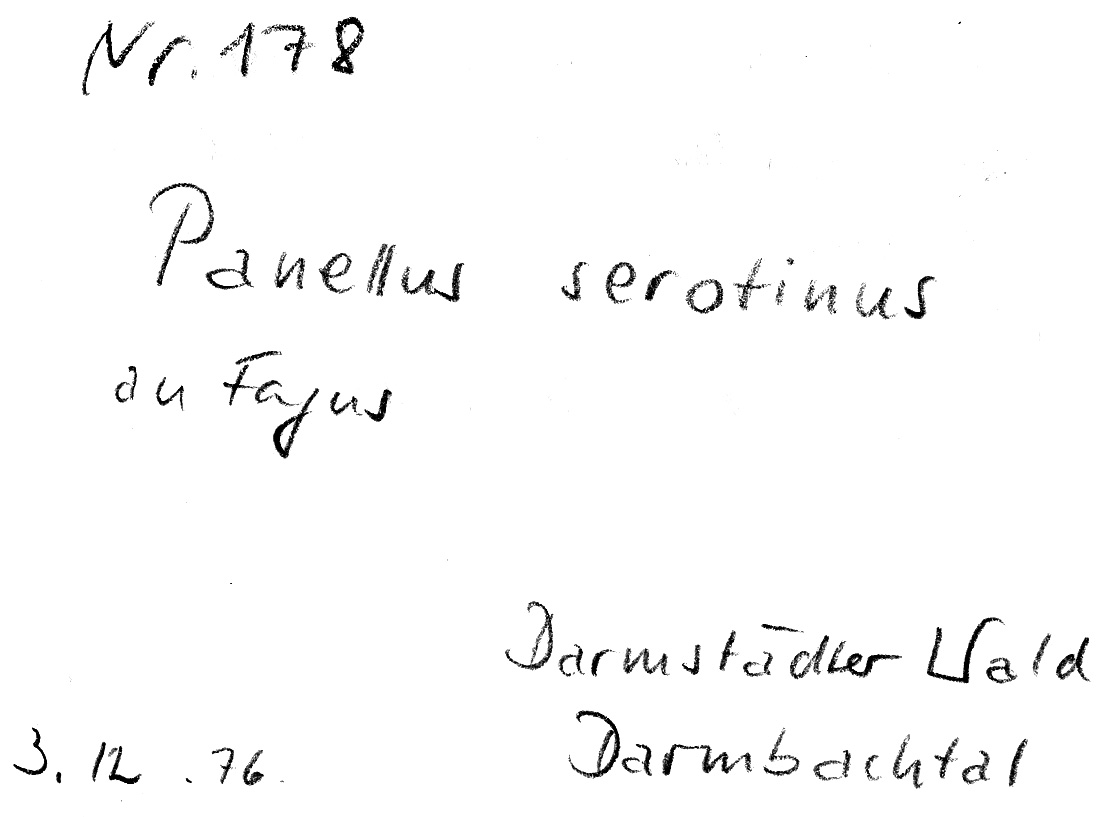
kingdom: Fungi
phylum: Basidiomycota
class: Agaricomycetes
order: Agaricales
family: Sarcomyxaceae
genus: Sarcomyxa
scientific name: Sarcomyxa serotina
